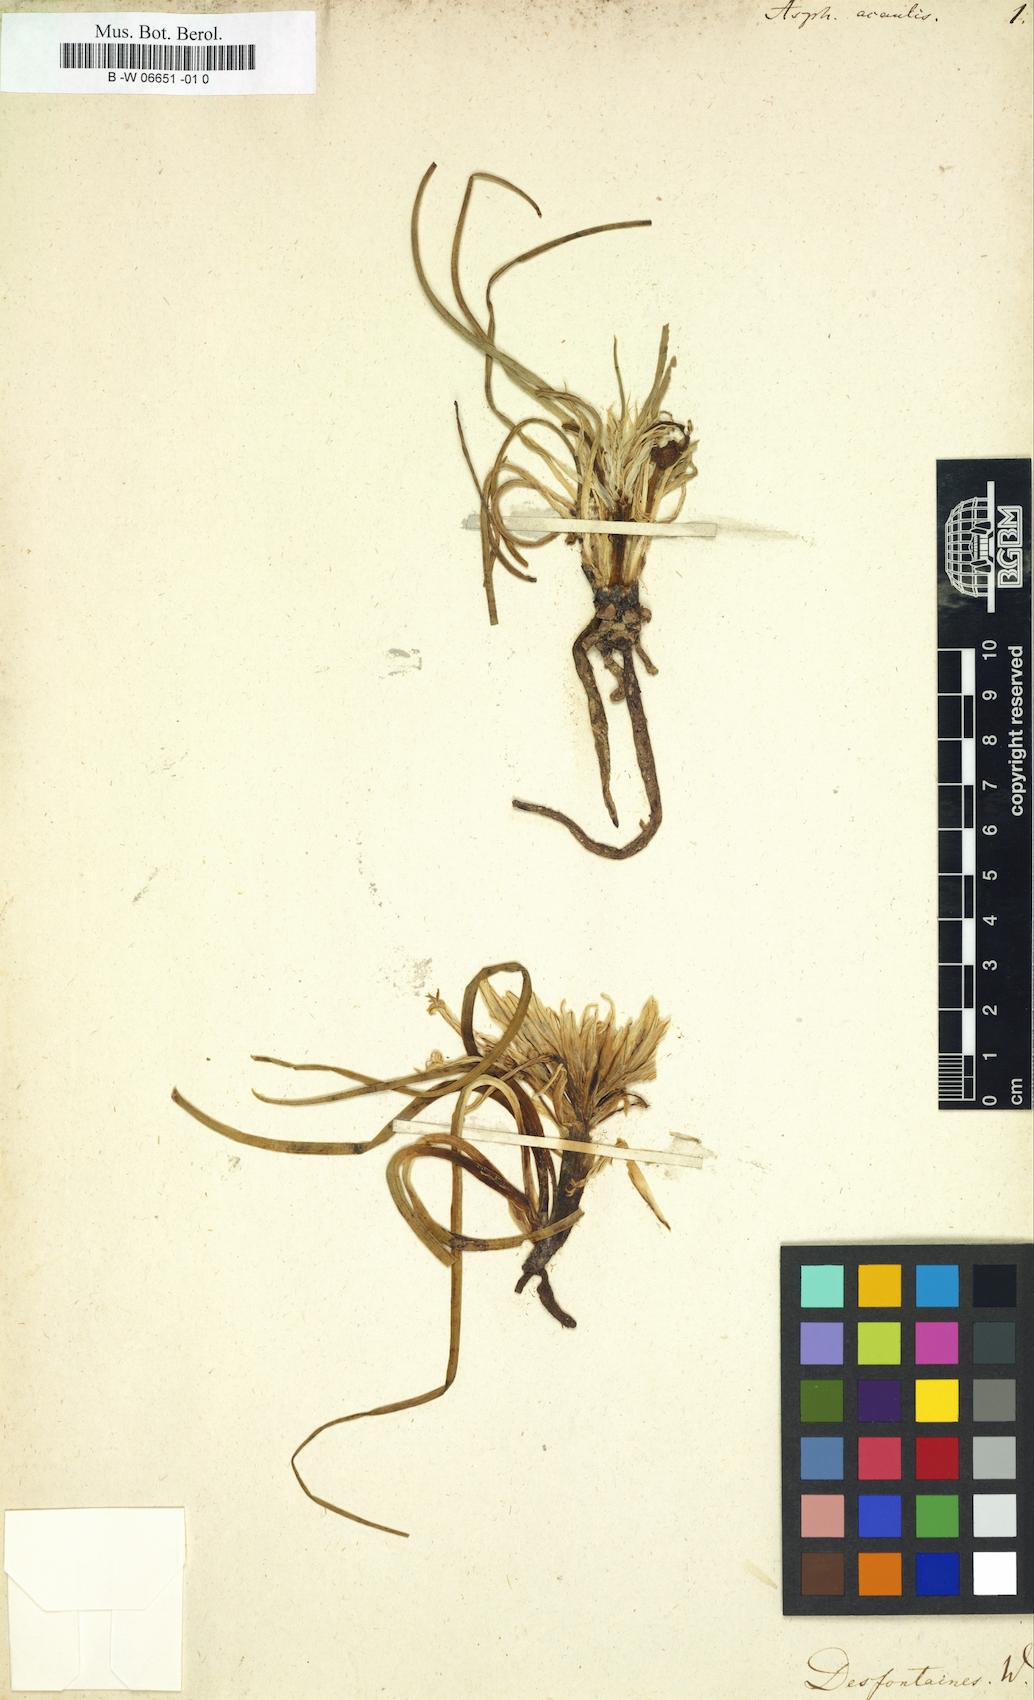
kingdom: Plantae
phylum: Tracheophyta
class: Liliopsida
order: Asparagales
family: Asphodelaceae
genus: Asphodelus
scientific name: Asphodelus acaulis
